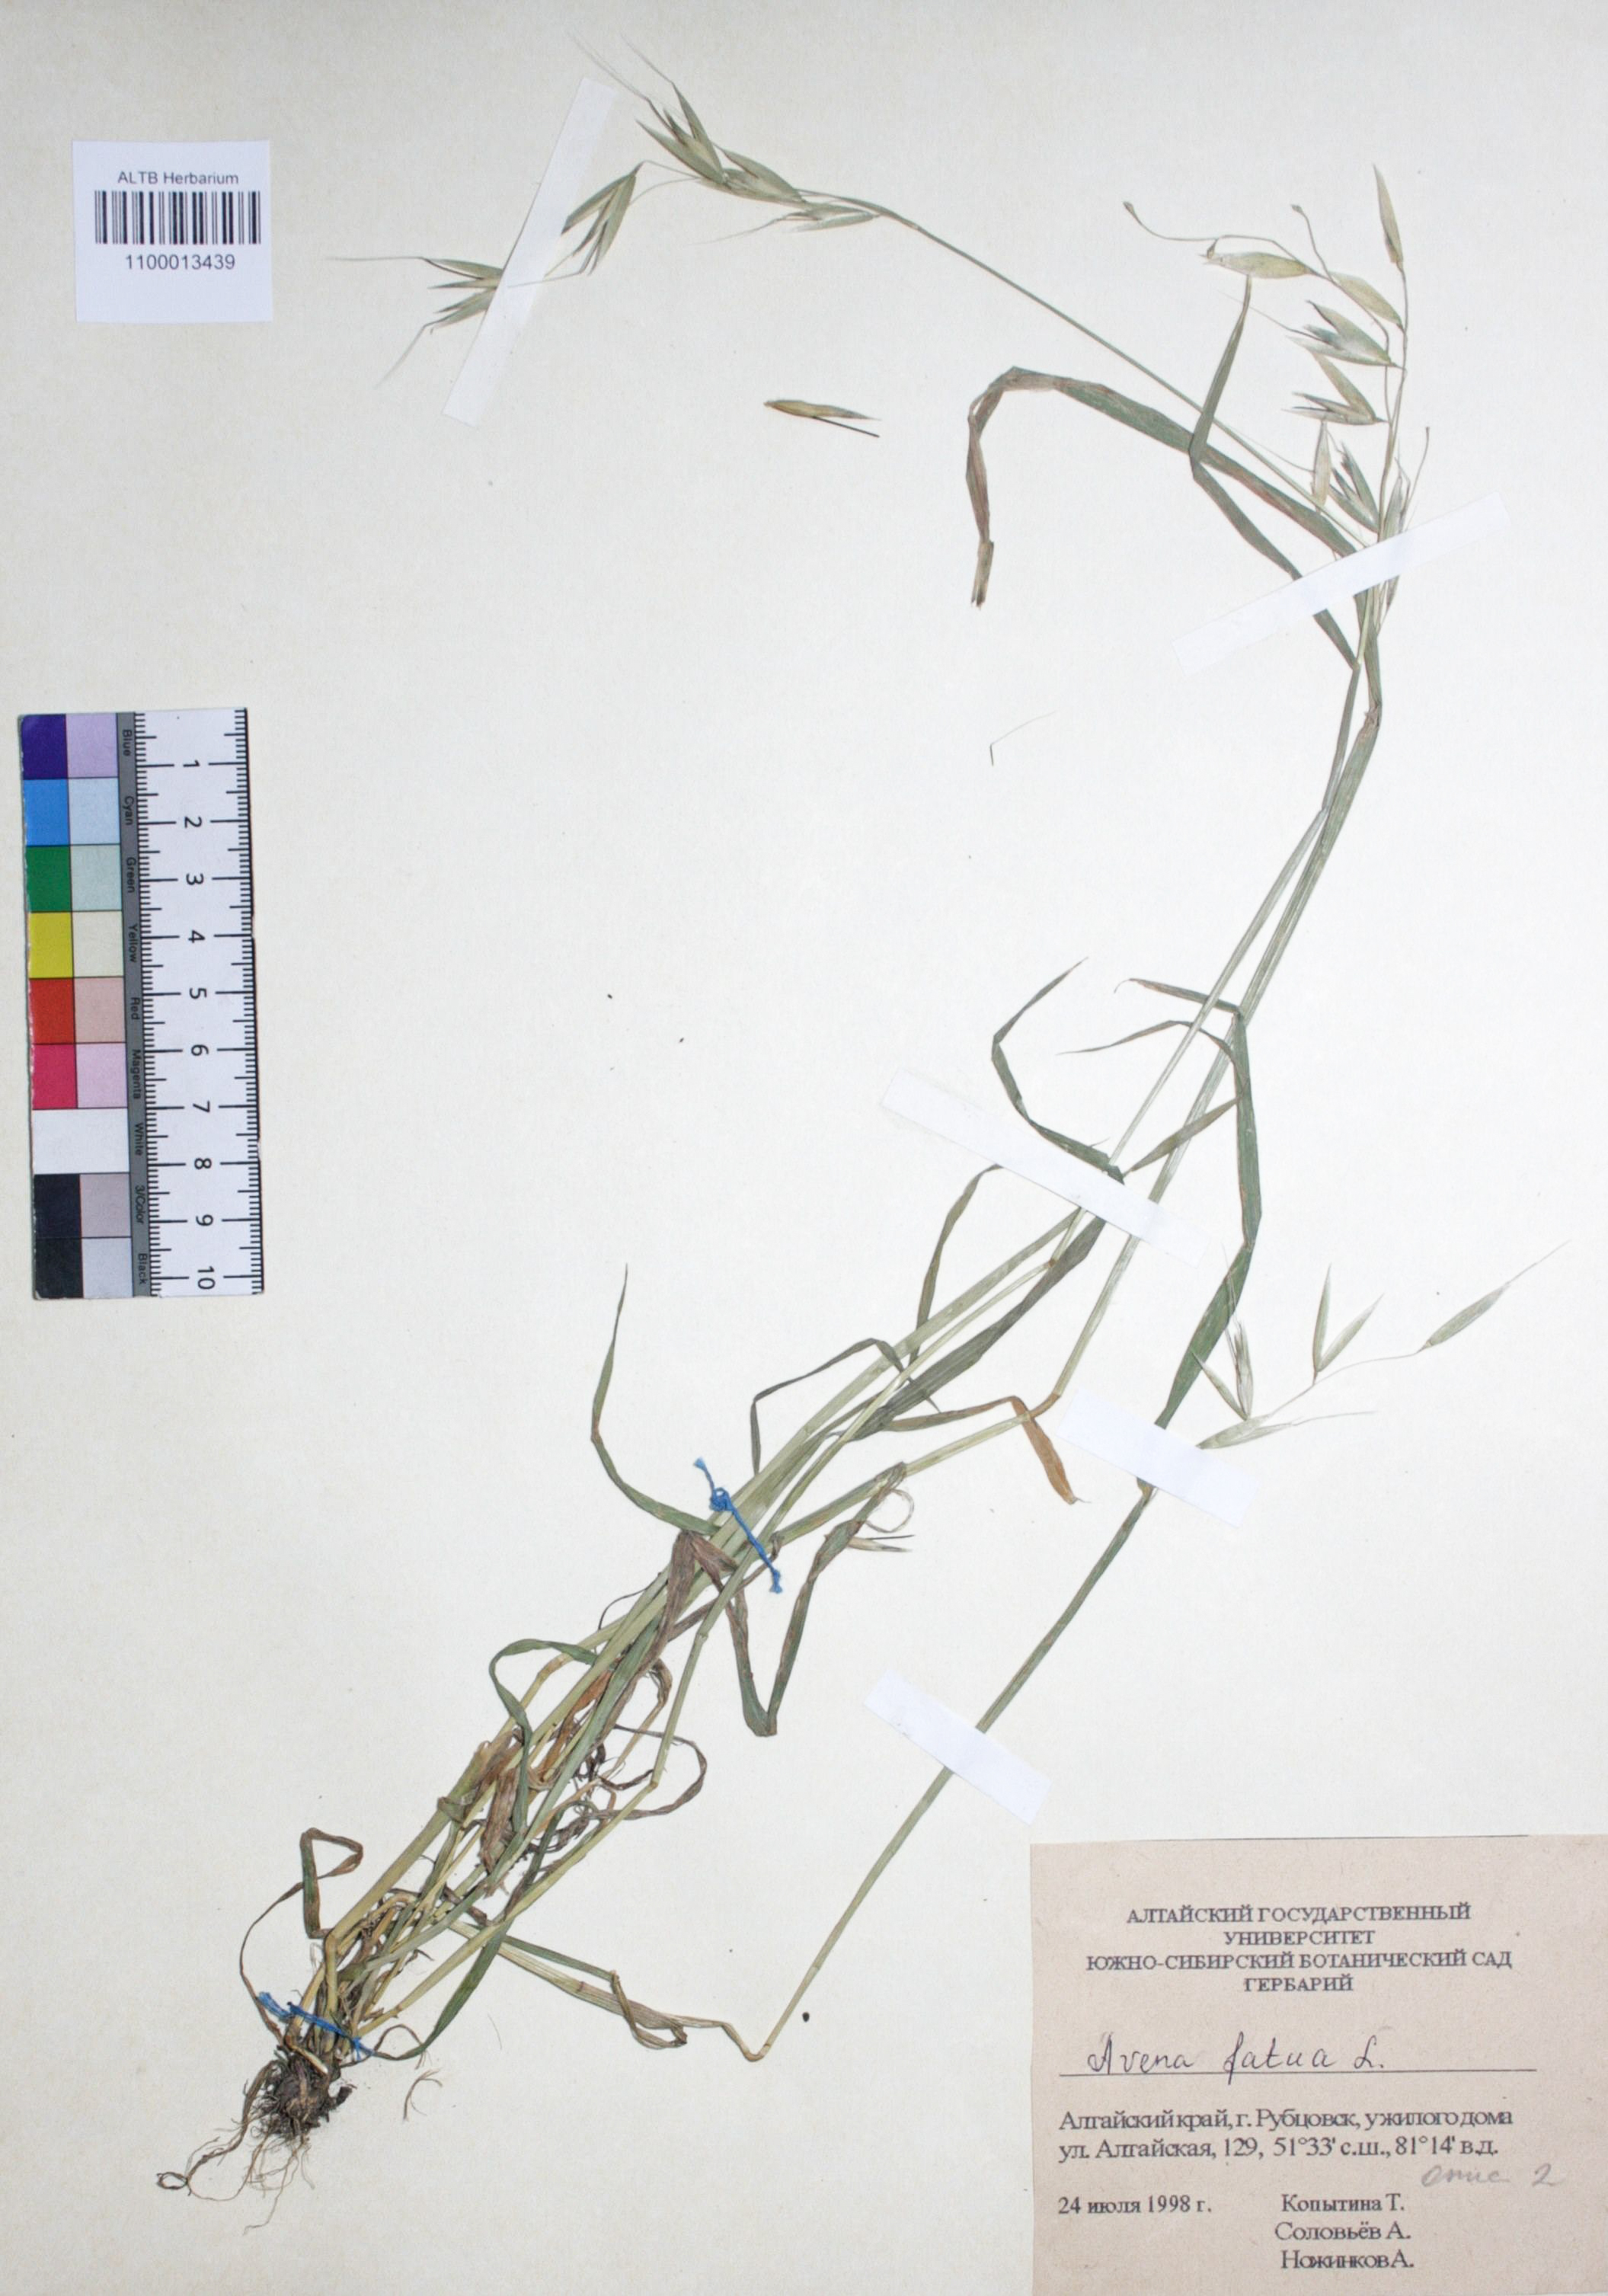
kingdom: Plantae
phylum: Tracheophyta
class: Liliopsida
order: Poales
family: Poaceae
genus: Avena
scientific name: Avena fatua
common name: Wild oat
